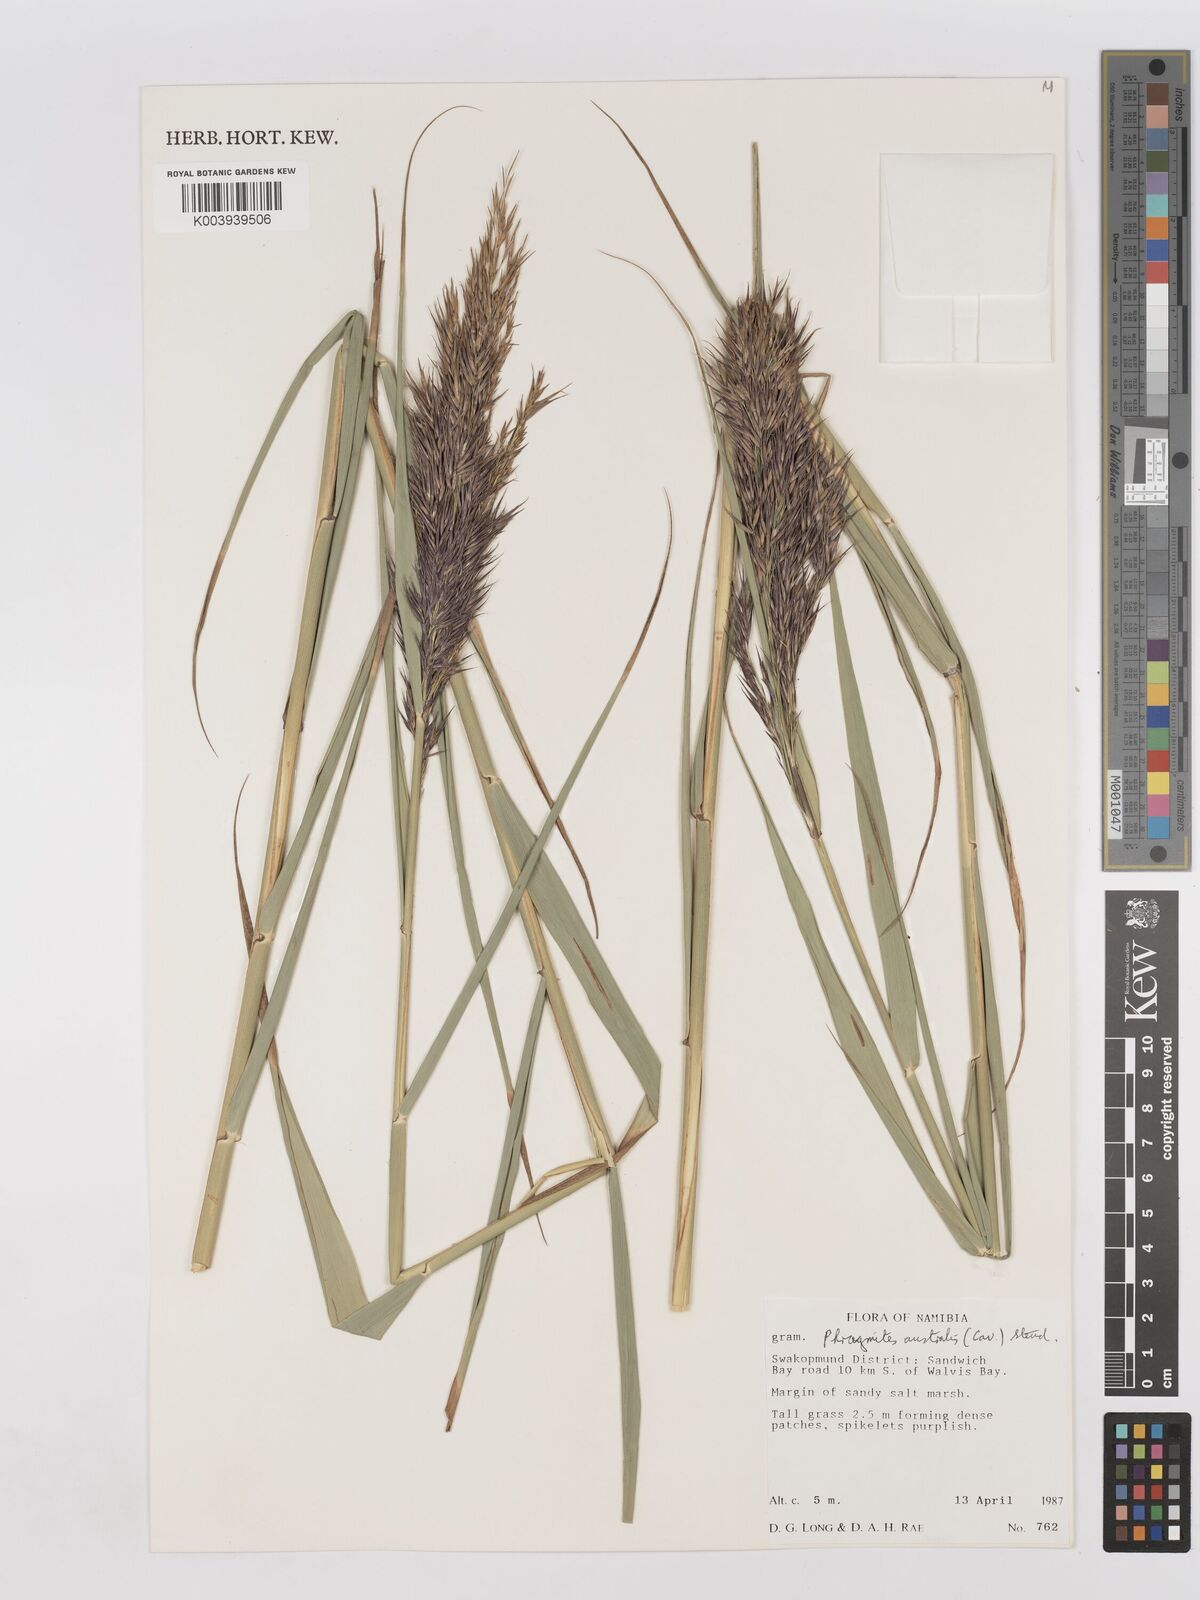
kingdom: Plantae
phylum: Tracheophyta
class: Liliopsida
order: Poales
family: Poaceae
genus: Phragmites
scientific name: Phragmites australis
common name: Common reed
